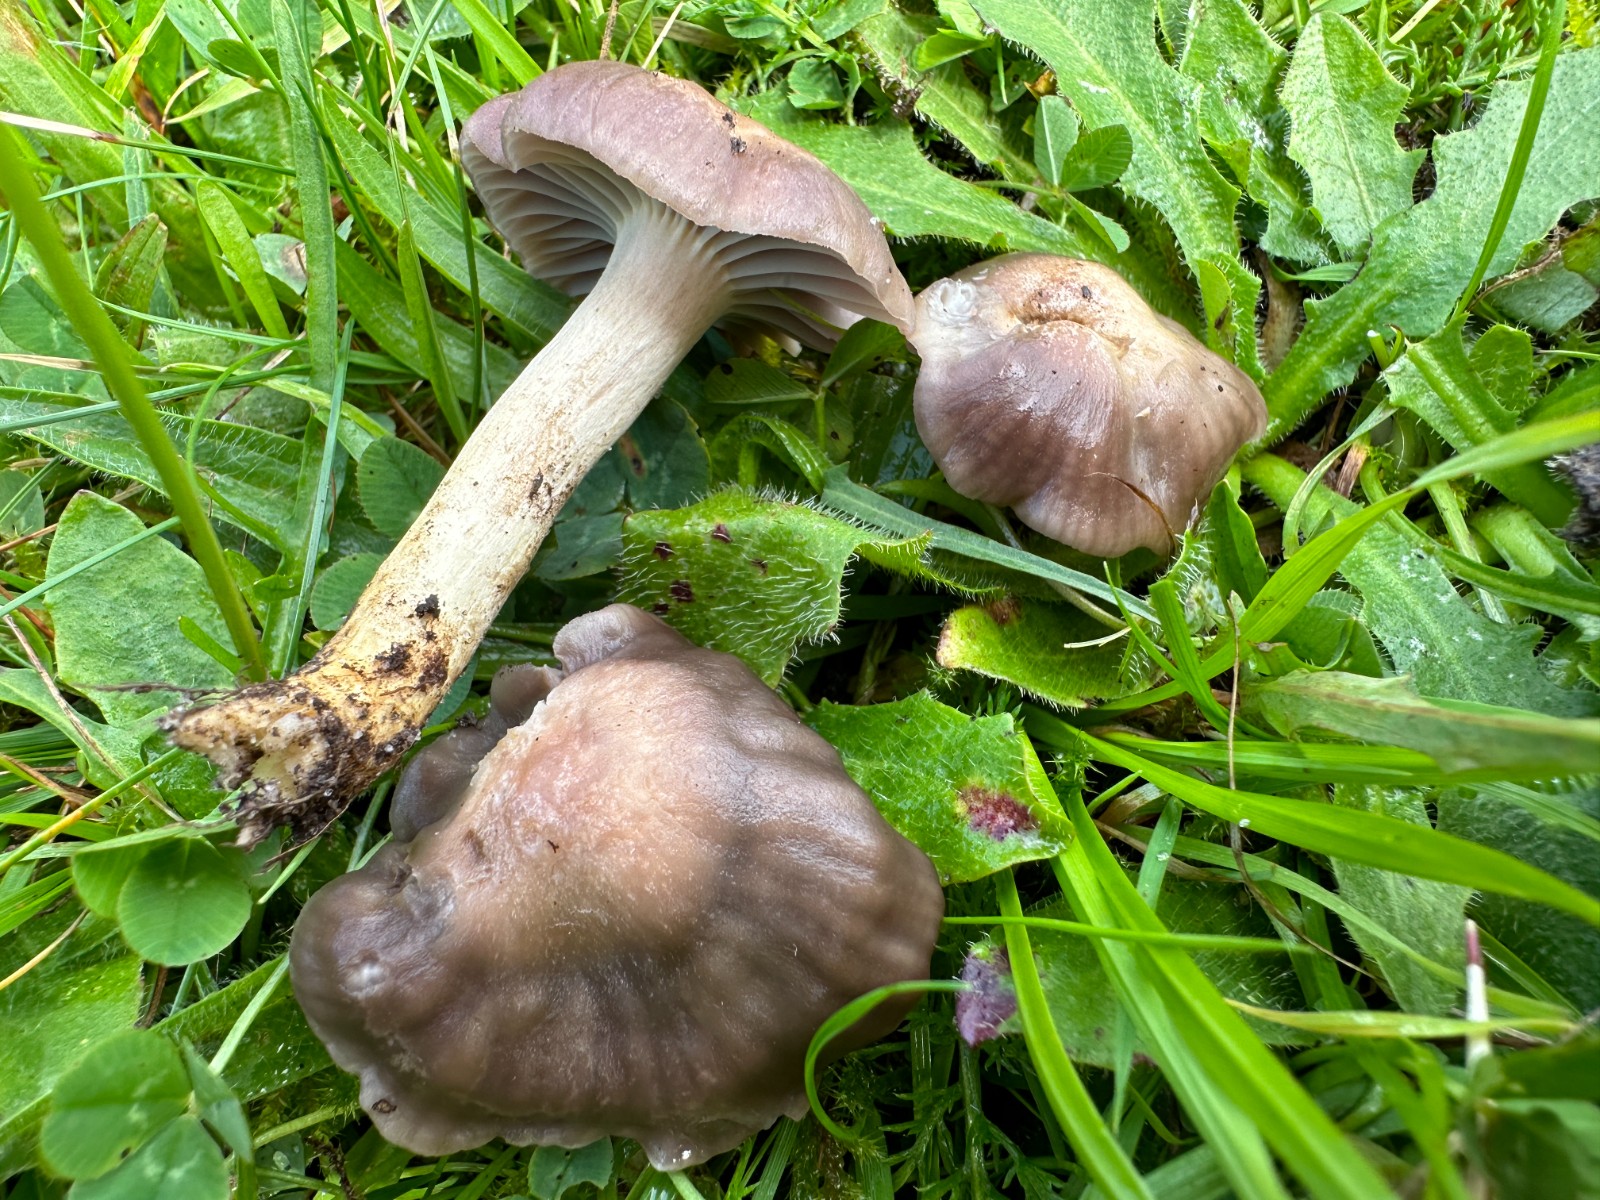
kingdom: Fungi
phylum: Basidiomycota
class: Agaricomycetes
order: Agaricales
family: Hygrophoraceae
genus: Cuphophyllus
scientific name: Cuphophyllus flavipes
